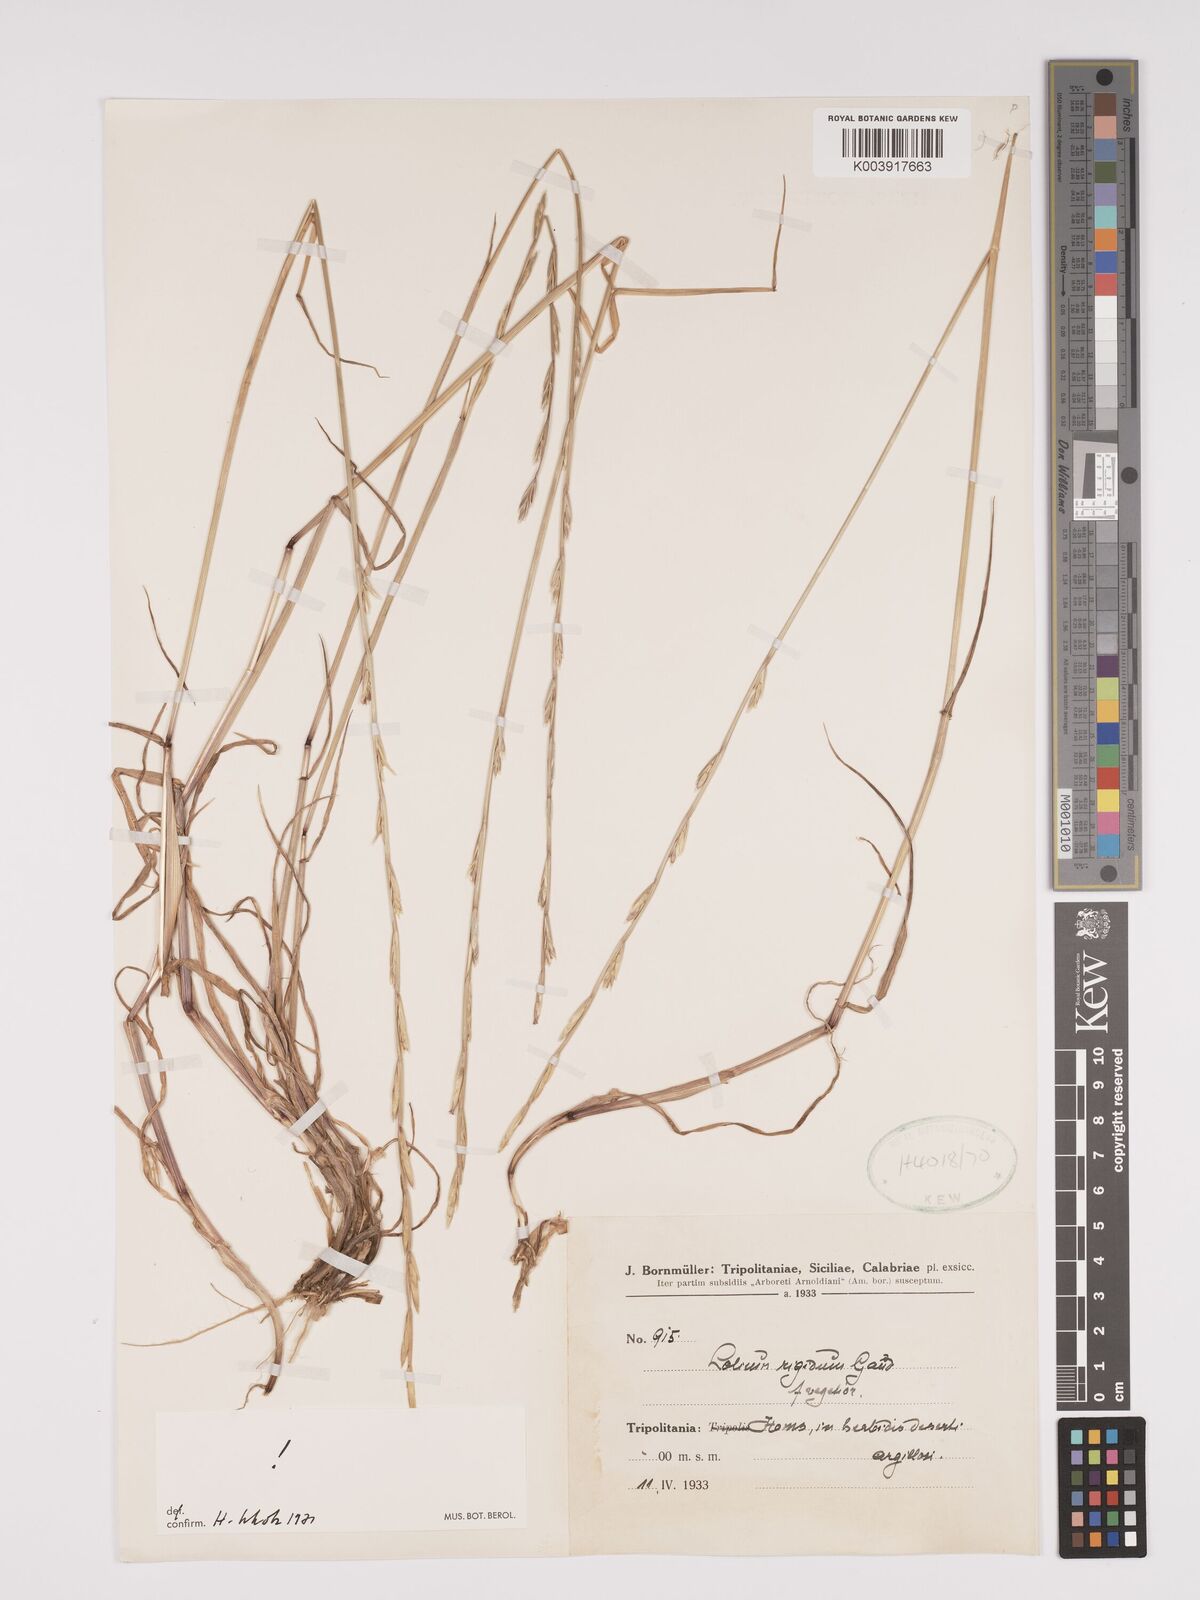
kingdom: Plantae
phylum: Tracheophyta
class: Liliopsida
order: Poales
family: Poaceae
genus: Lolium
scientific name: Lolium rigidum
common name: Wimmera ryegrass
